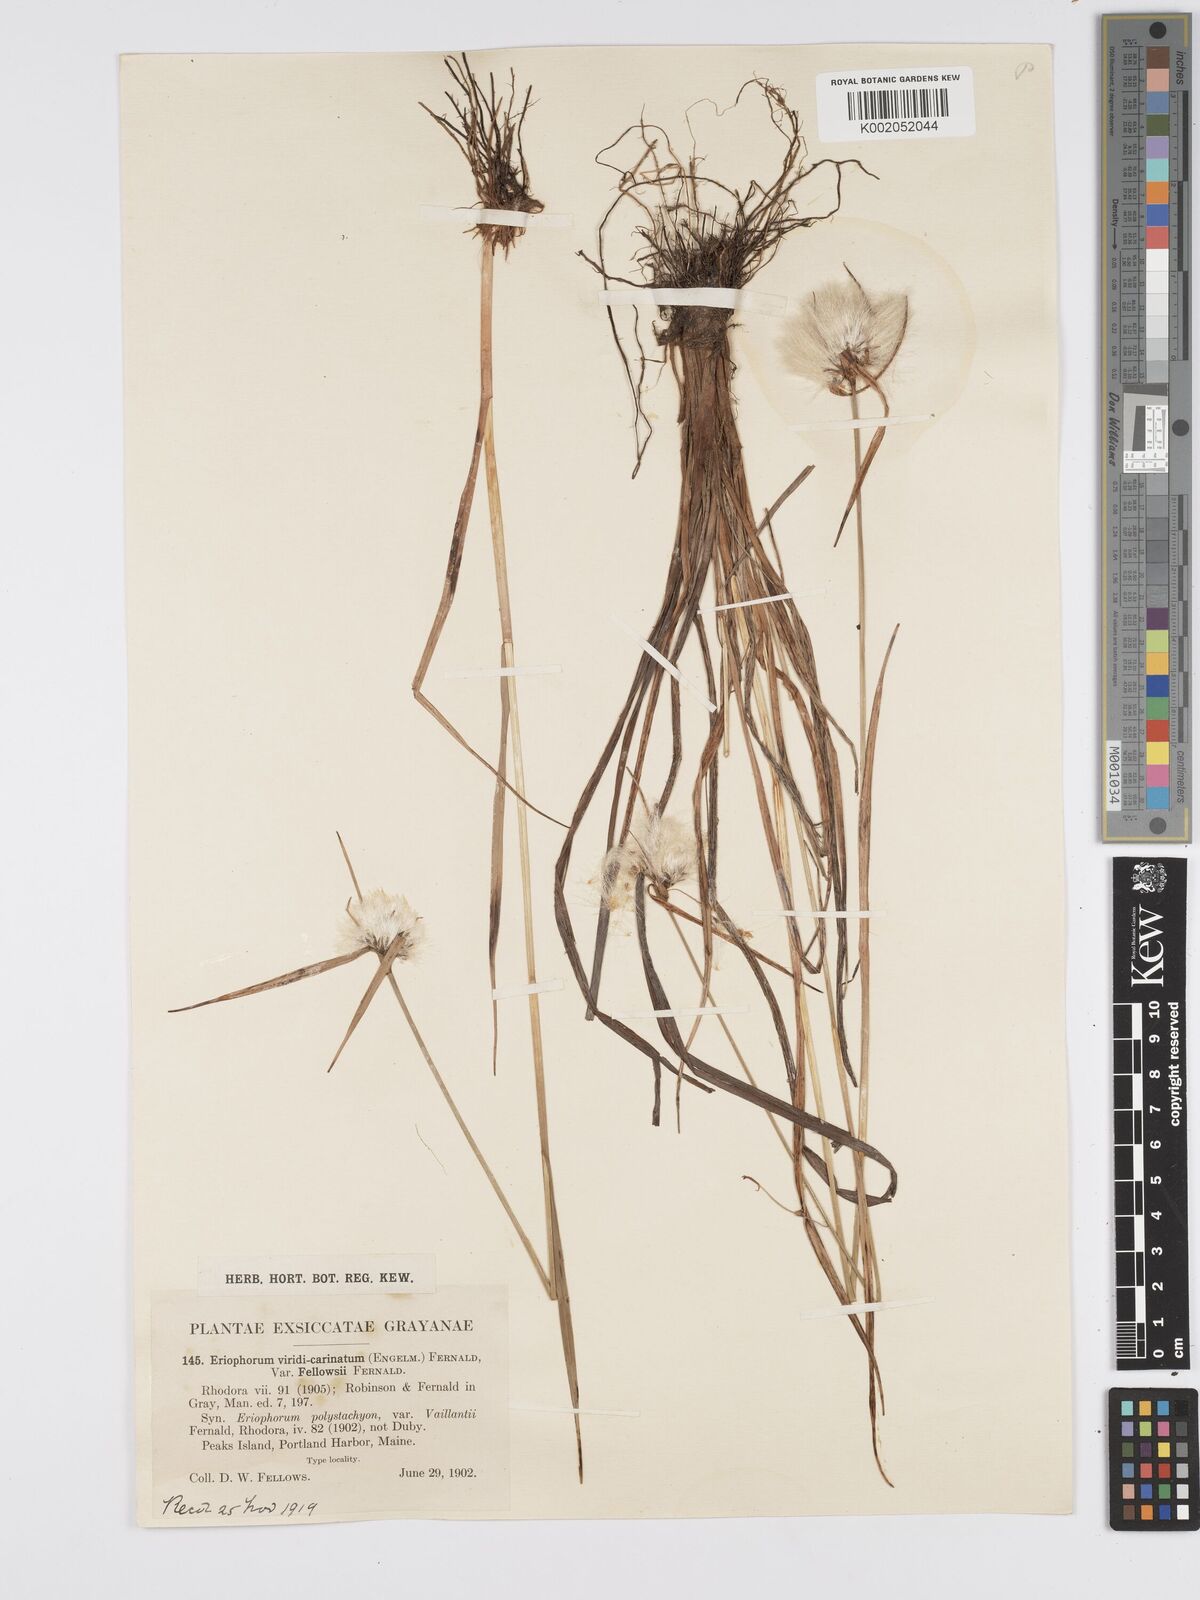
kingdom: Plantae
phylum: Tracheophyta
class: Liliopsida
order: Poales
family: Cyperaceae
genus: Eriophorum
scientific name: Eriophorum viridicarinatum
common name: Green-keeled cottongrass
